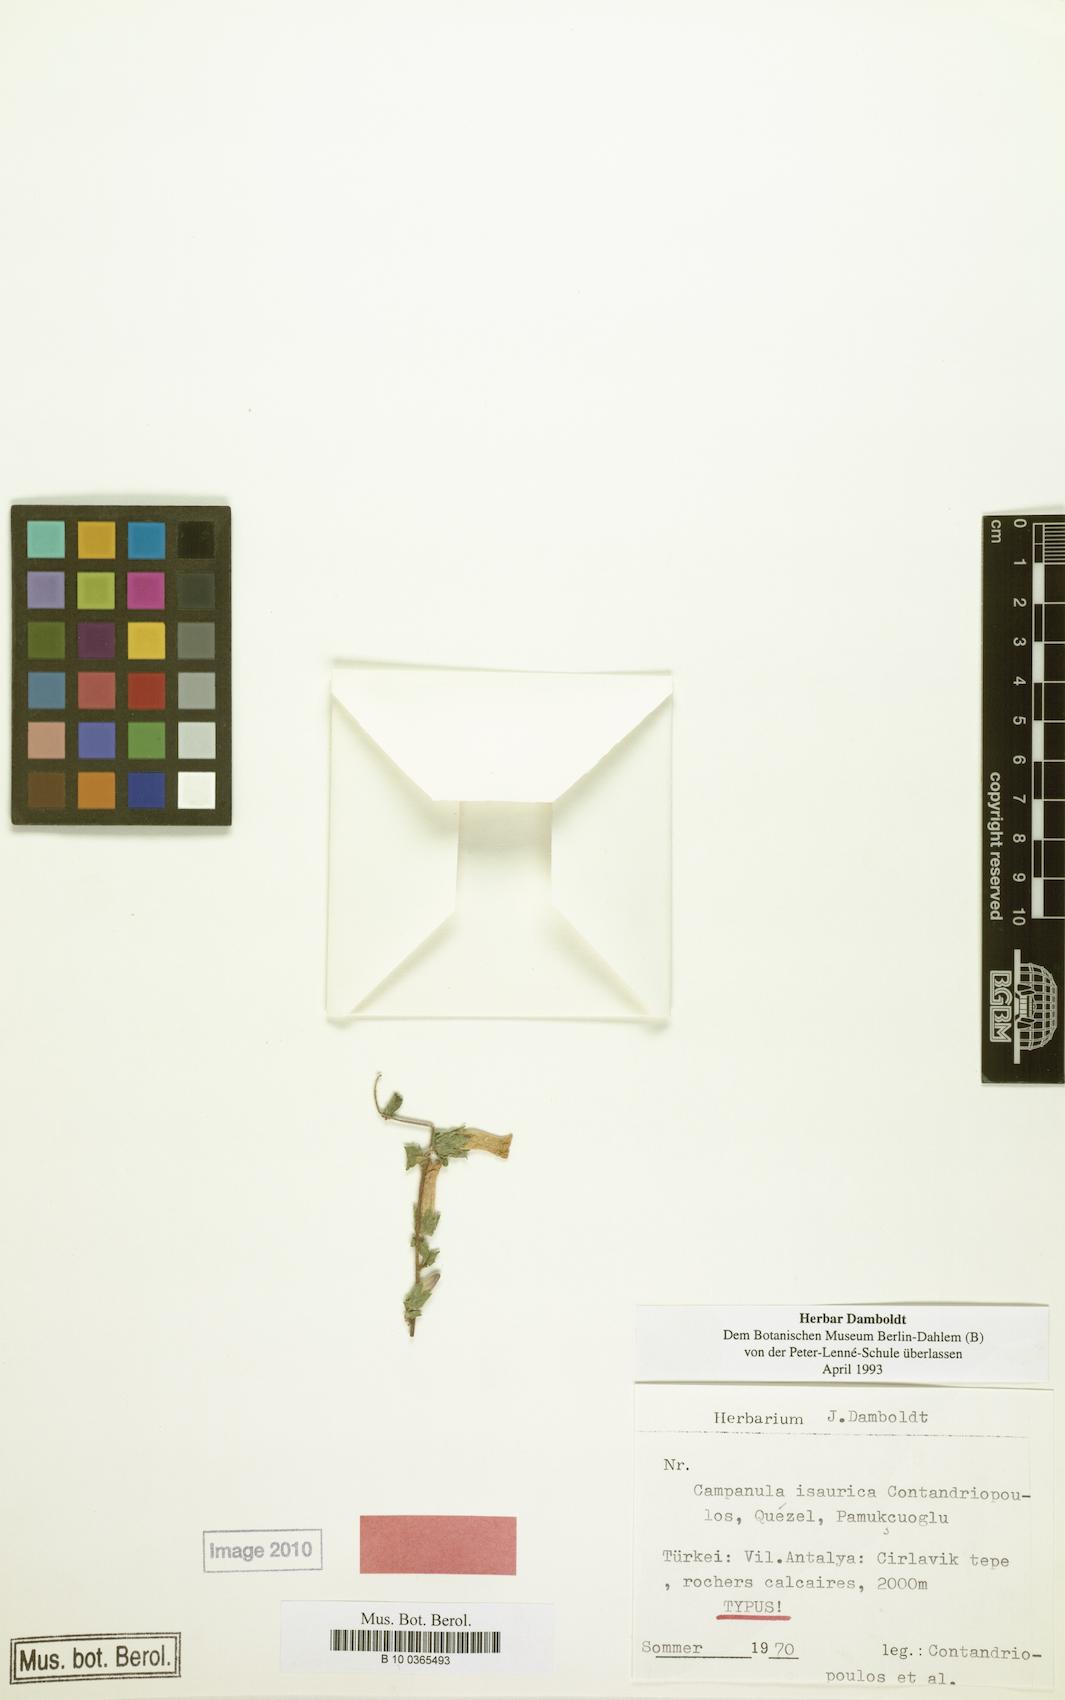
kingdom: Plantae
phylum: Tracheophyta
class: Magnoliopsida
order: Asterales
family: Campanulaceae
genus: Campanula
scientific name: Campanula isaurica
